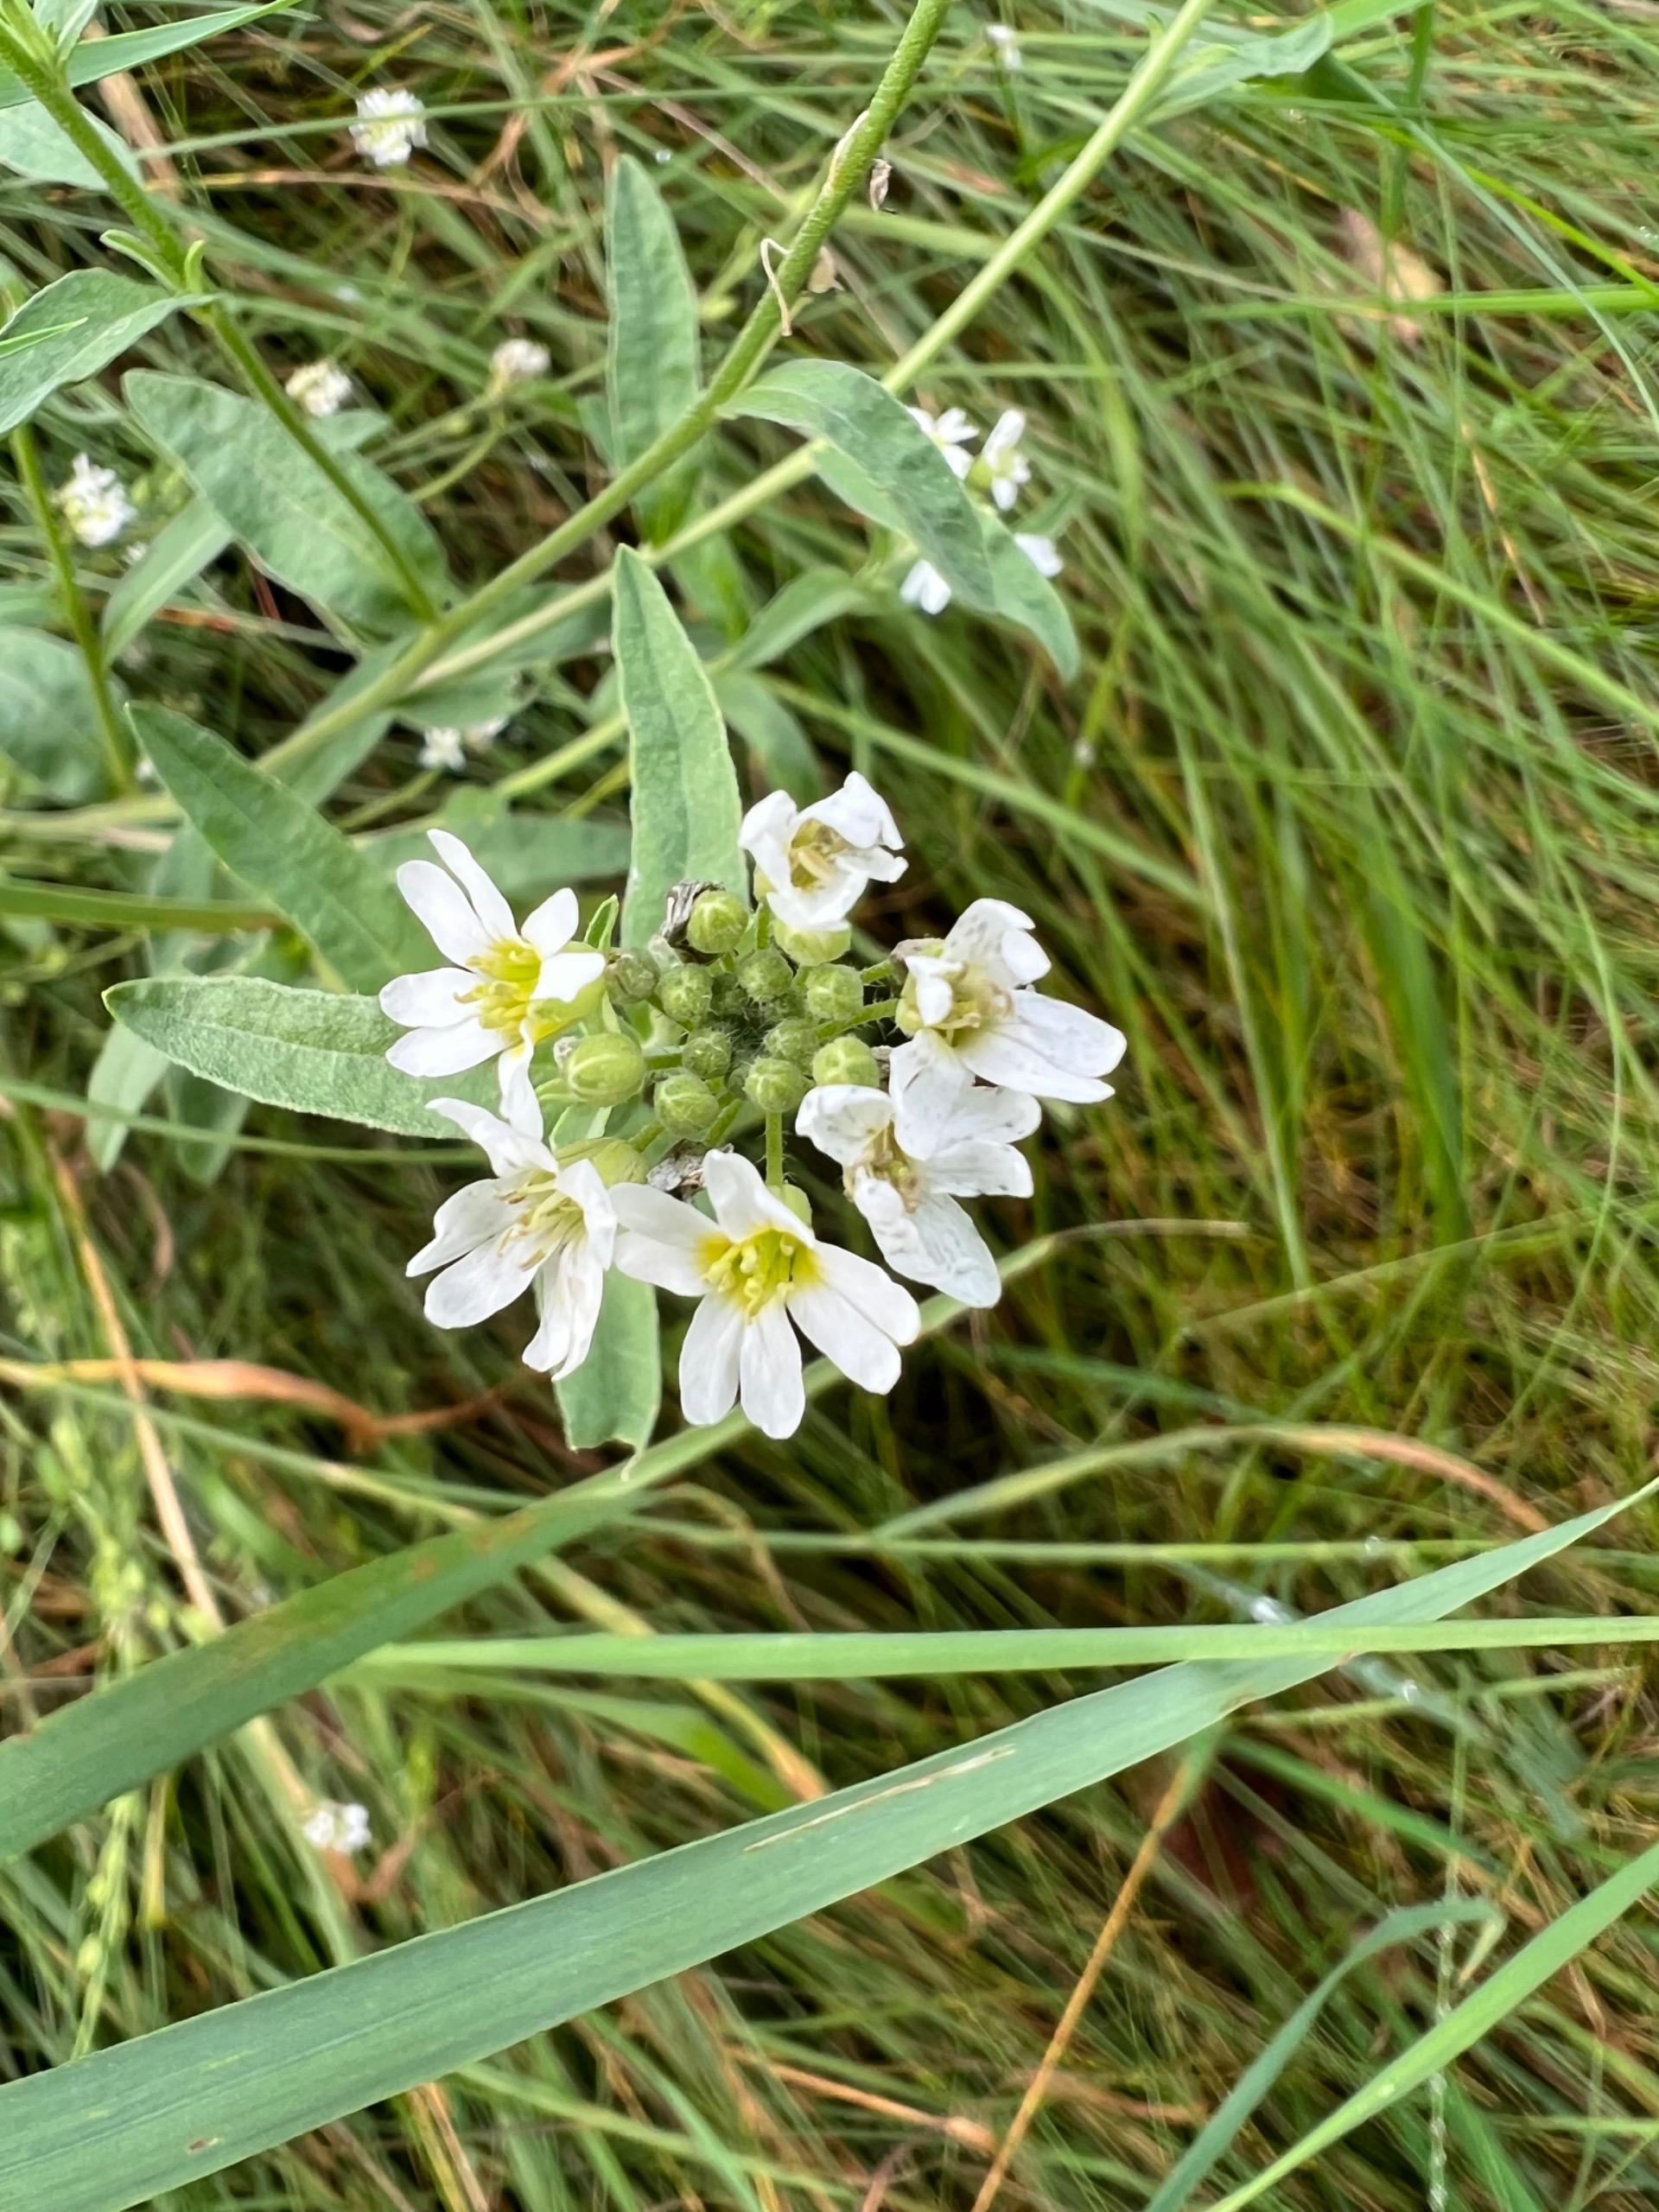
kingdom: Plantae
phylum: Tracheophyta
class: Magnoliopsida
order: Brassicales
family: Brassicaceae
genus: Berteroa
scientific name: Berteroa incana
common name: Kløvplade
